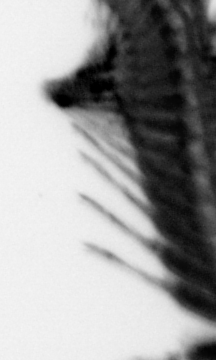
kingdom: Animalia
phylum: Annelida
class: Polychaeta
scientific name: Polychaeta
